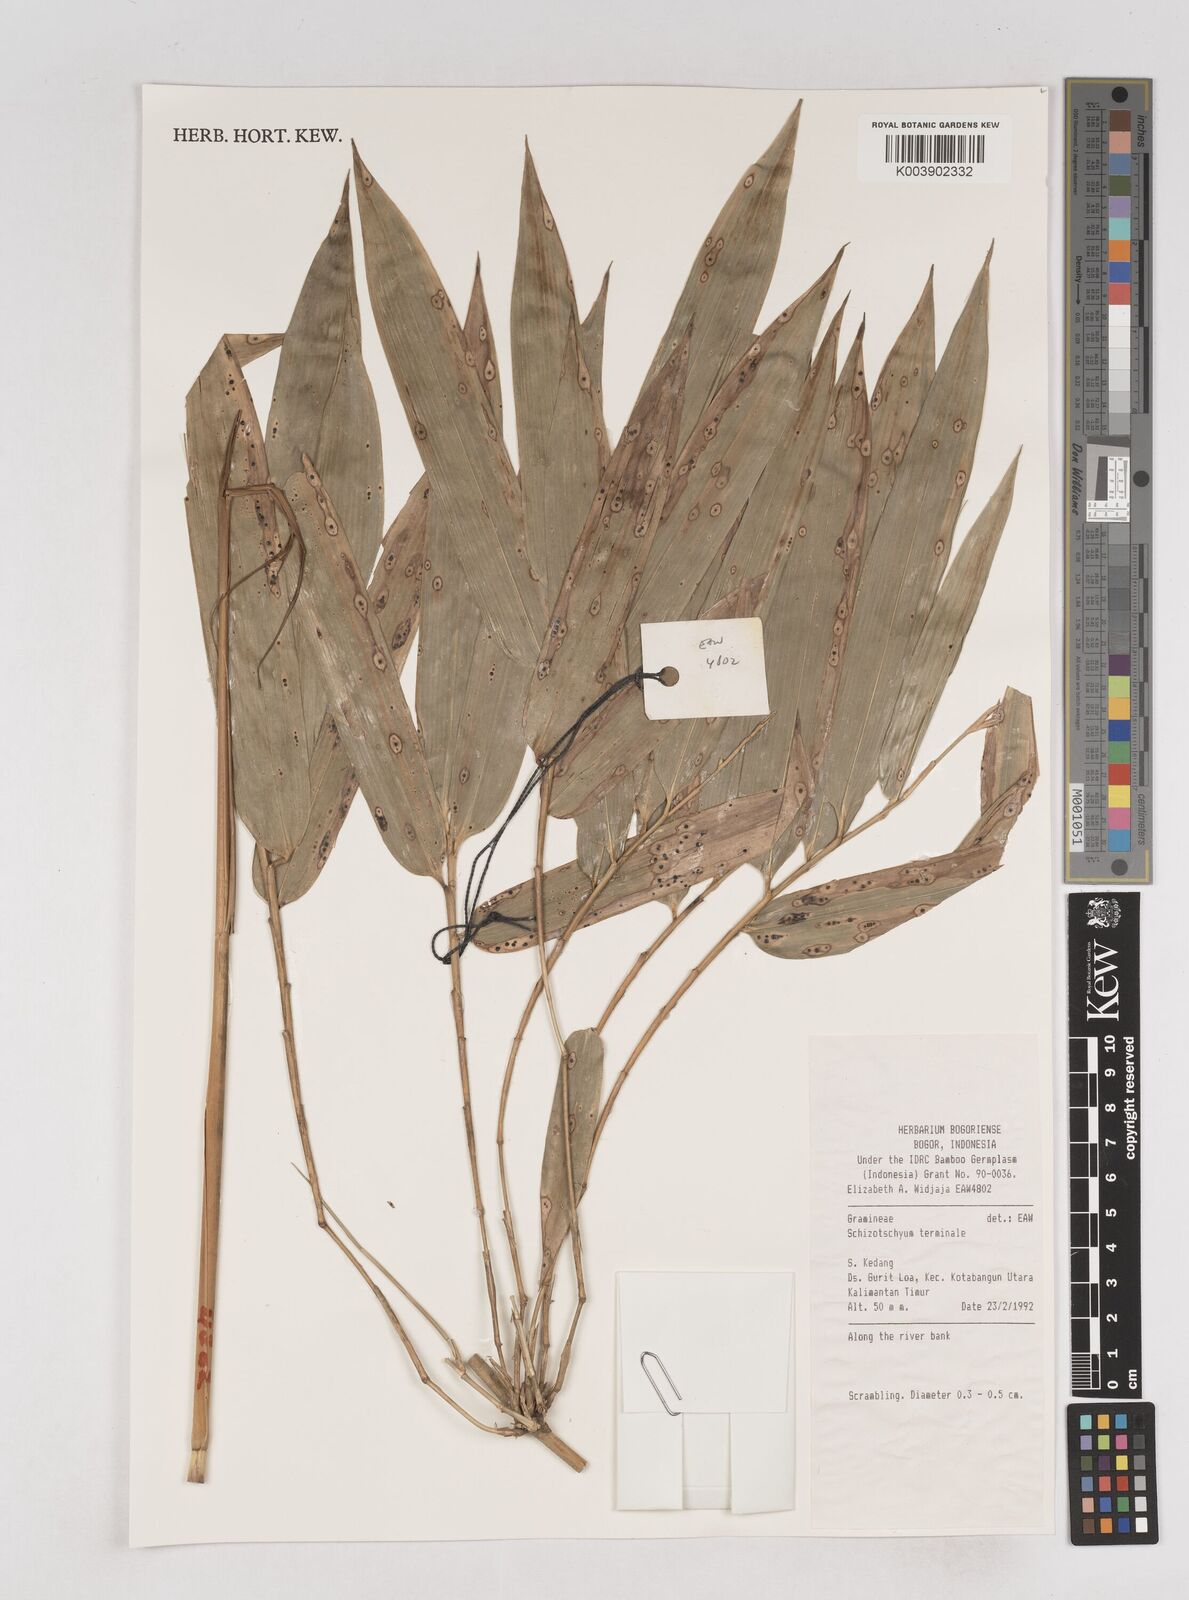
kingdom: Plantae
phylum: Tracheophyta
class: Liliopsida
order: Poales
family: Poaceae
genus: Schizostachyum
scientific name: Schizostachyum terminale
